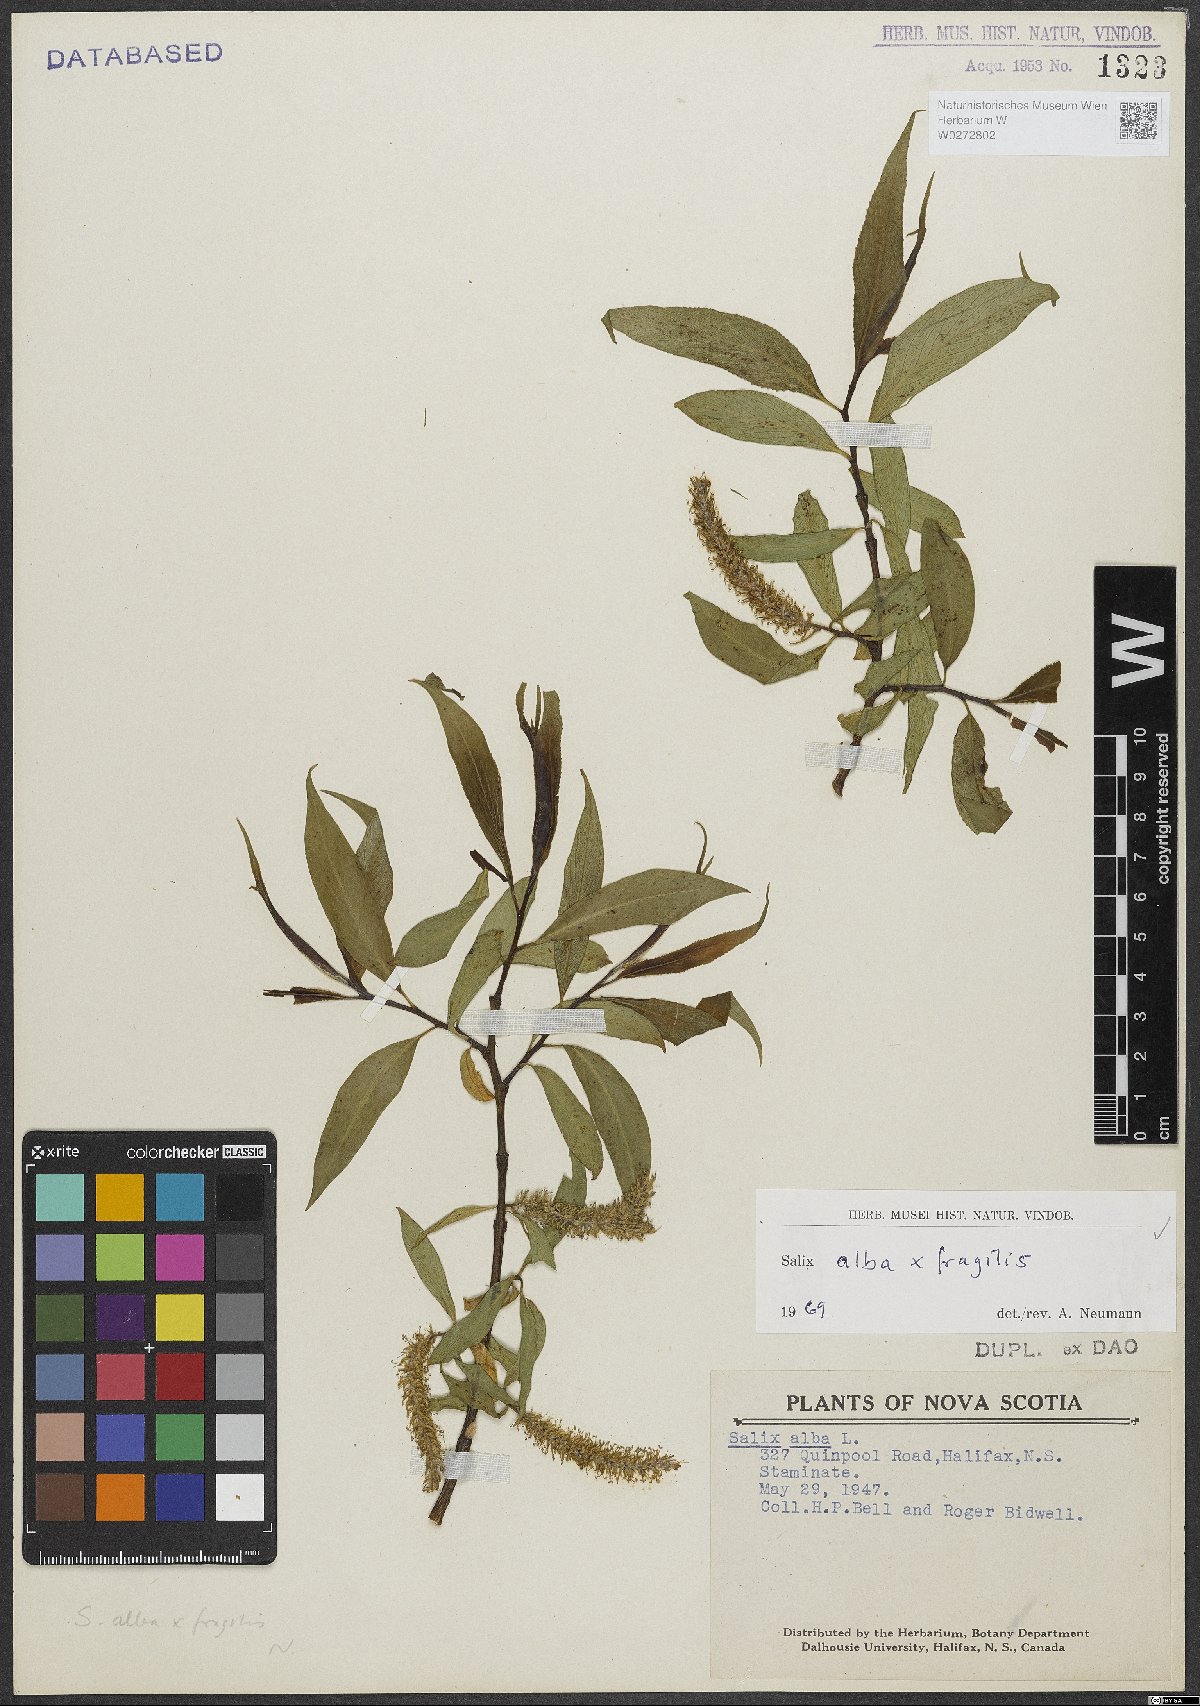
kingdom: Plantae
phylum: Tracheophyta
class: Magnoliopsida
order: Malpighiales
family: Salicaceae
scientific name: Salicaceae
